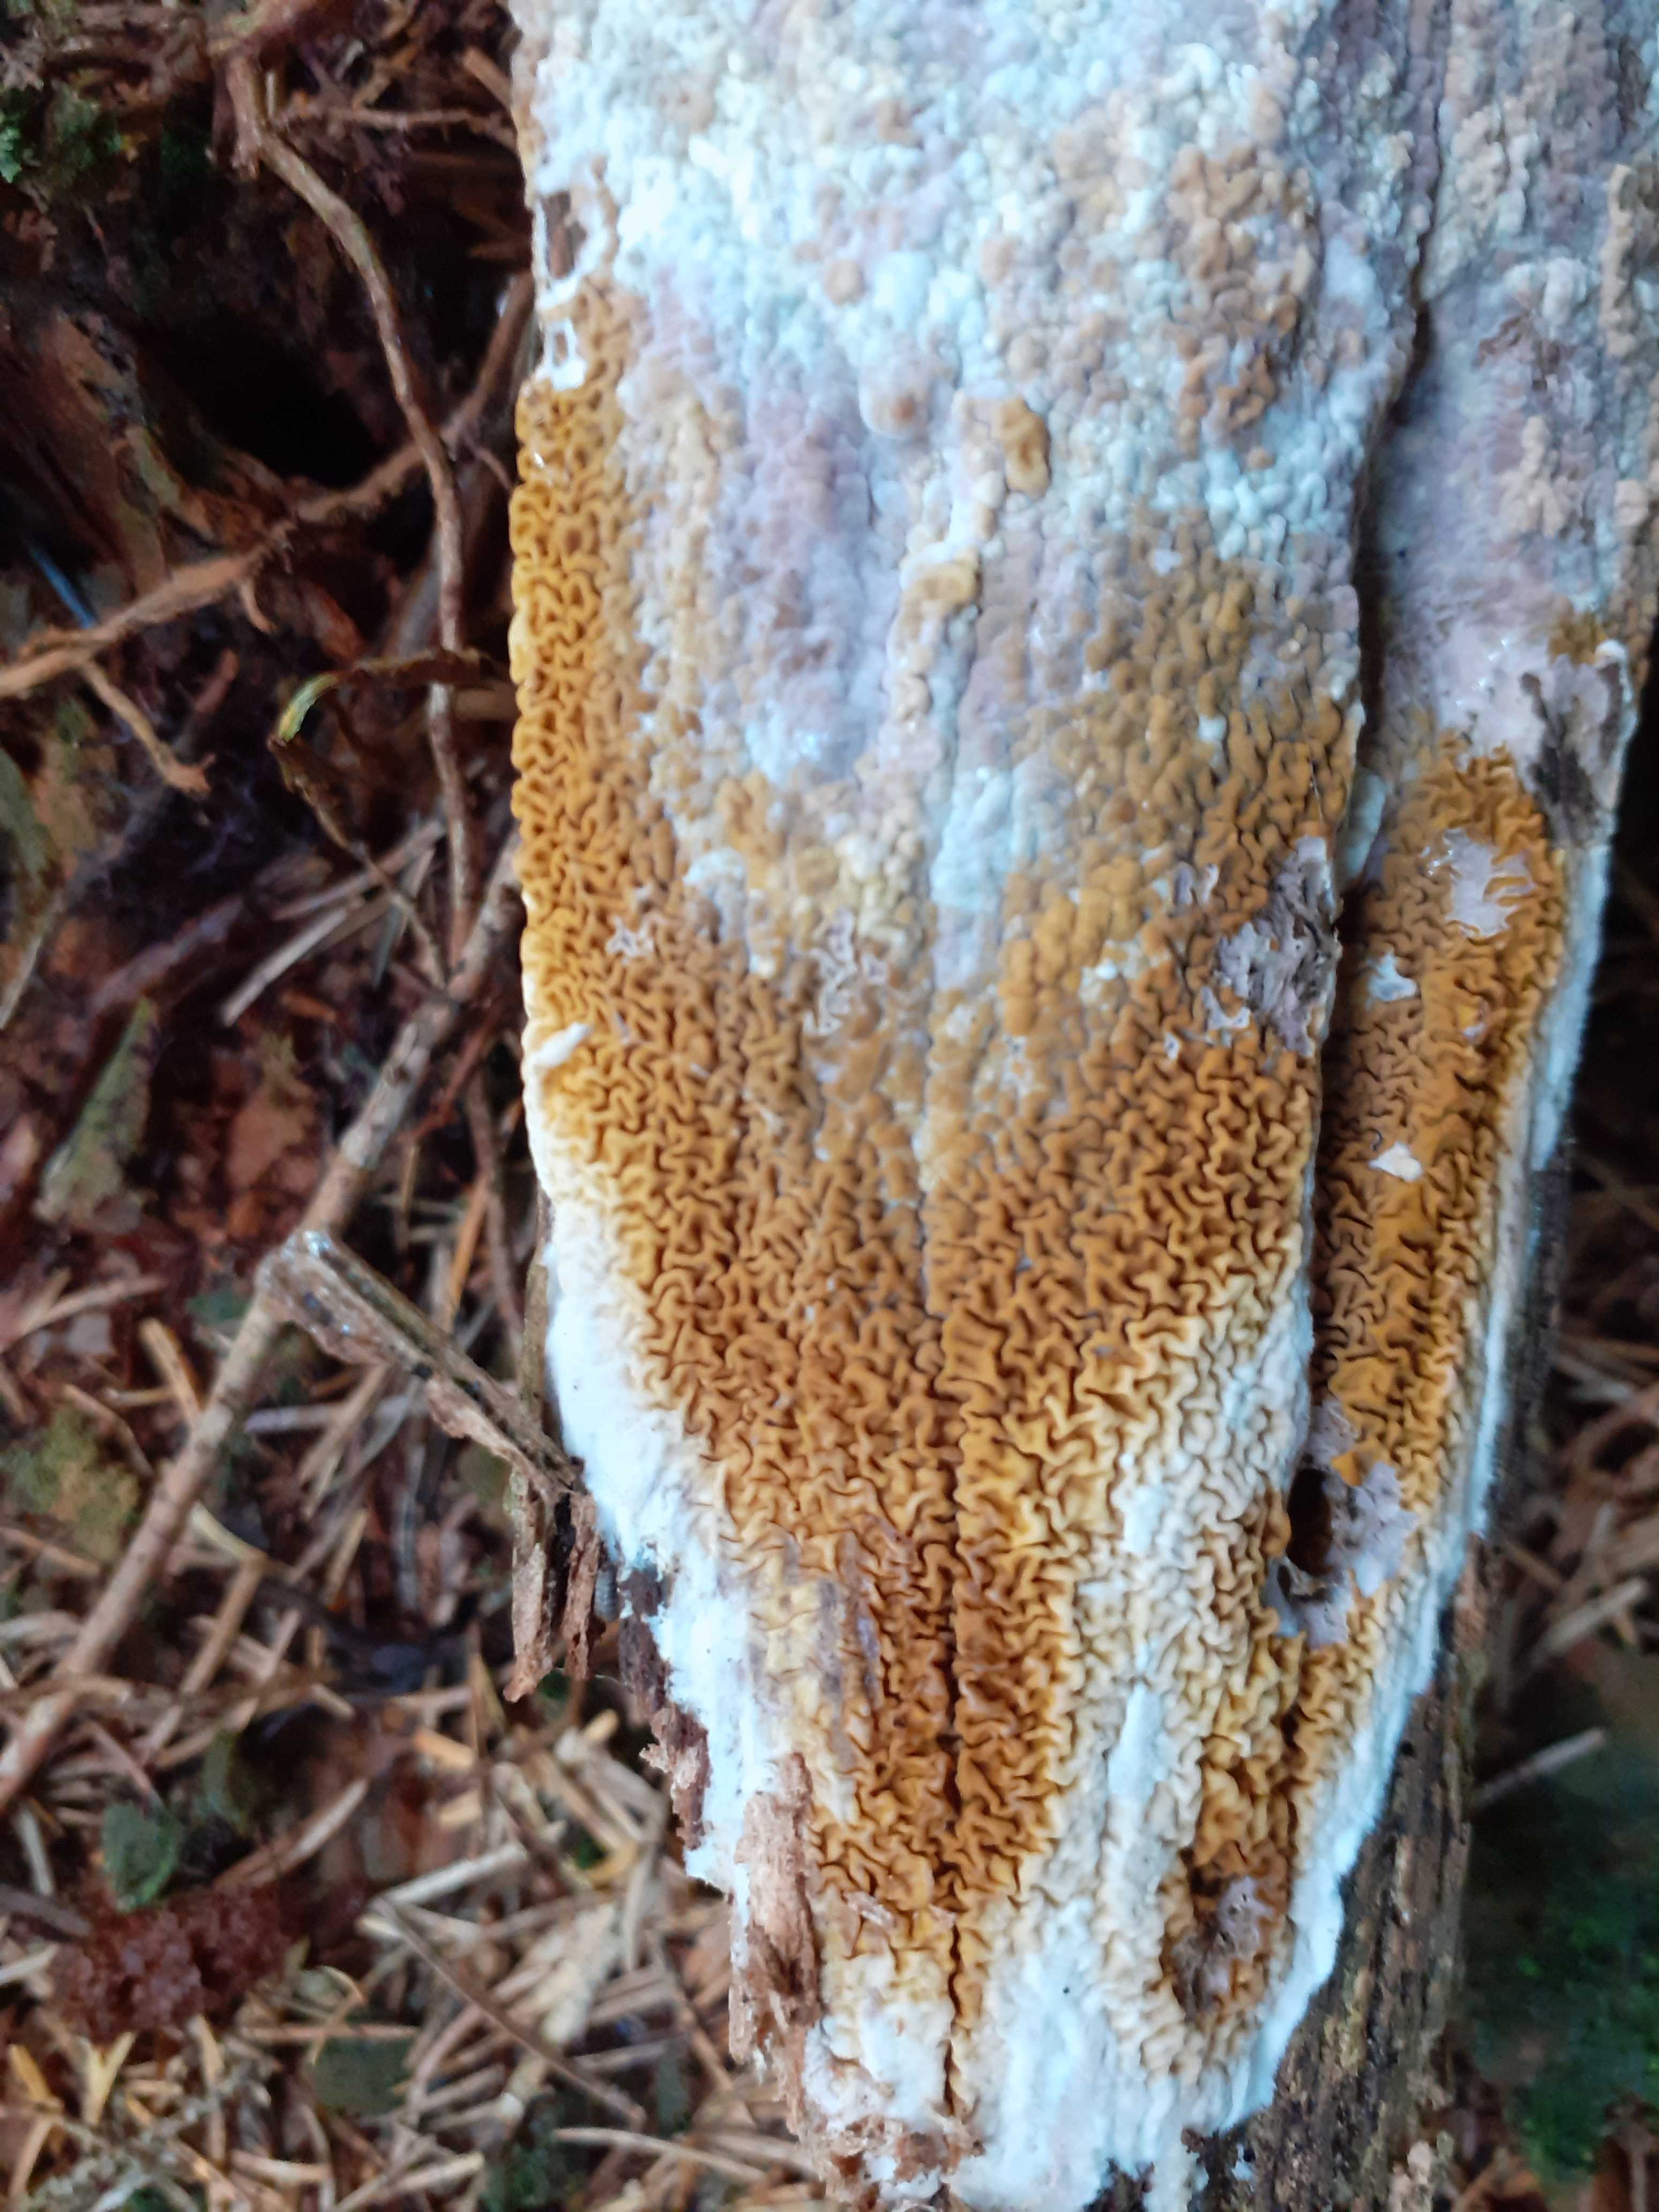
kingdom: Fungi
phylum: Basidiomycota
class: Agaricomycetes
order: Boletales
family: Serpulaceae
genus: Serpula
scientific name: Serpula himantioides
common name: tyndkødet hussvamp
